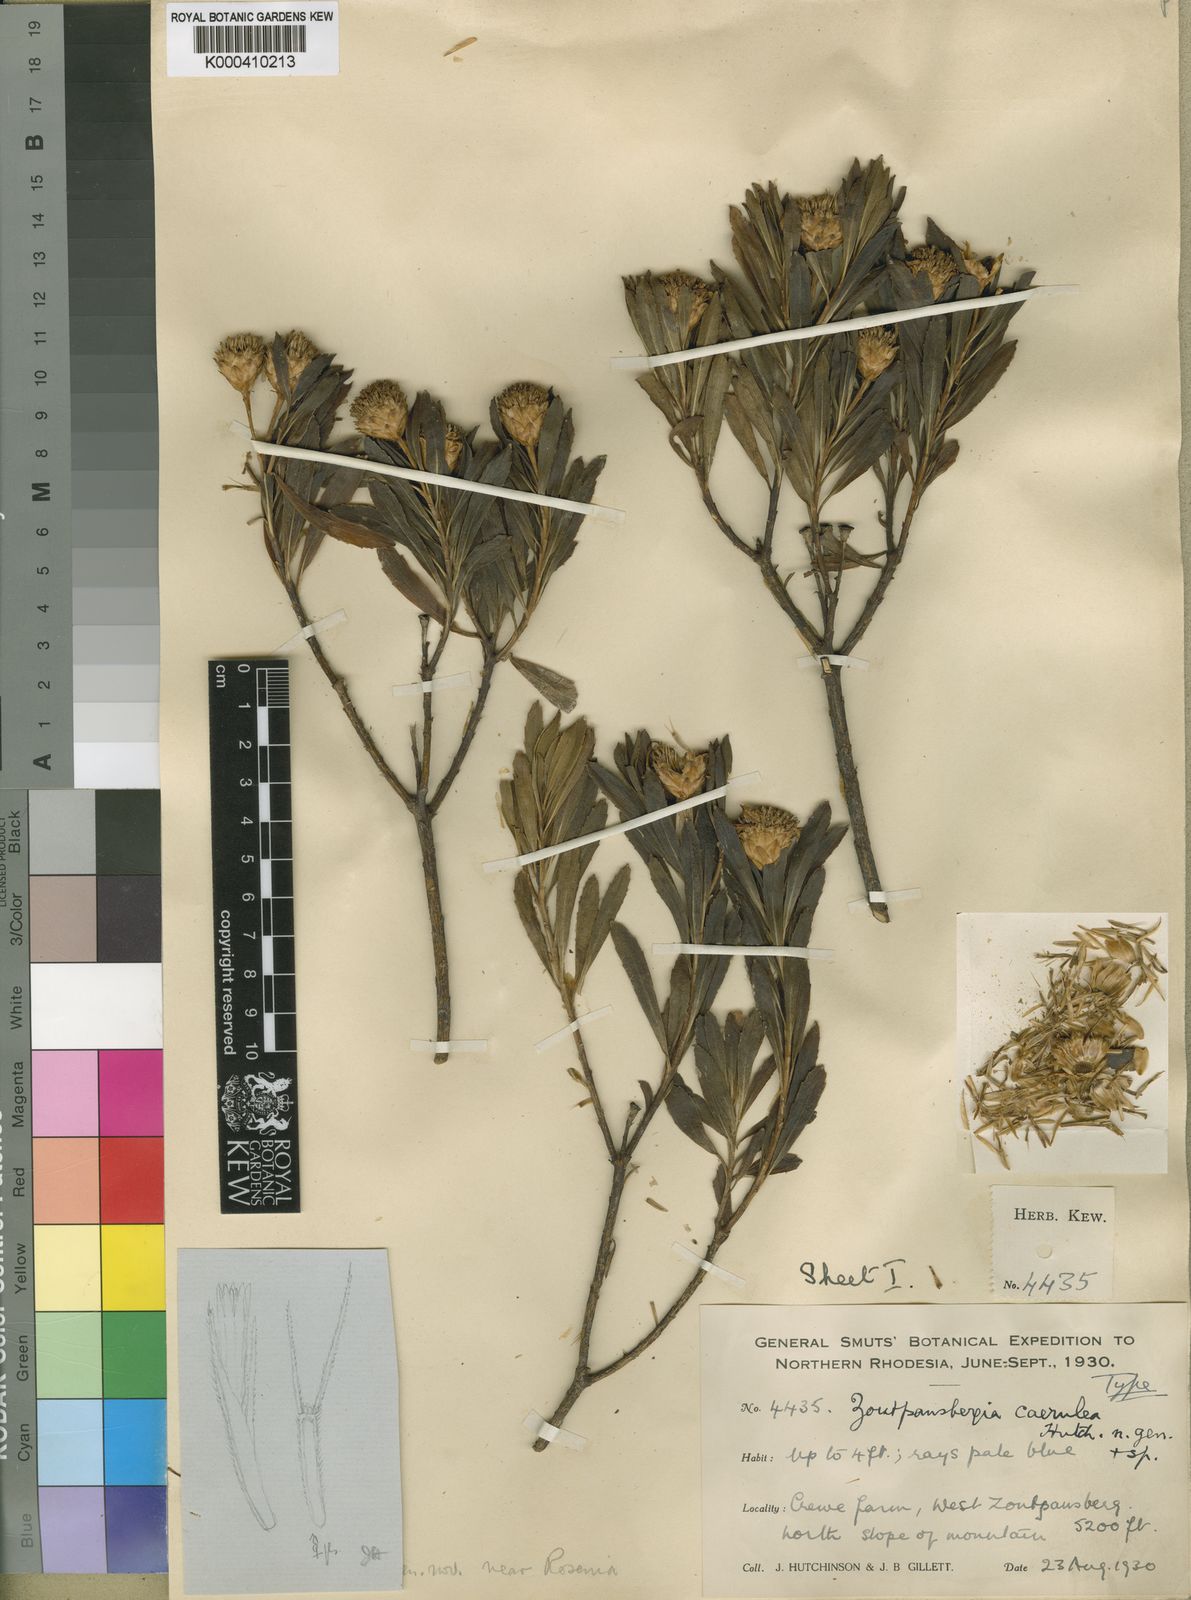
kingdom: Plantae
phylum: Tracheophyta
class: Magnoliopsida
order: Asterales
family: Asteraceae
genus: Callilepis
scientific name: Callilepis caerulea
